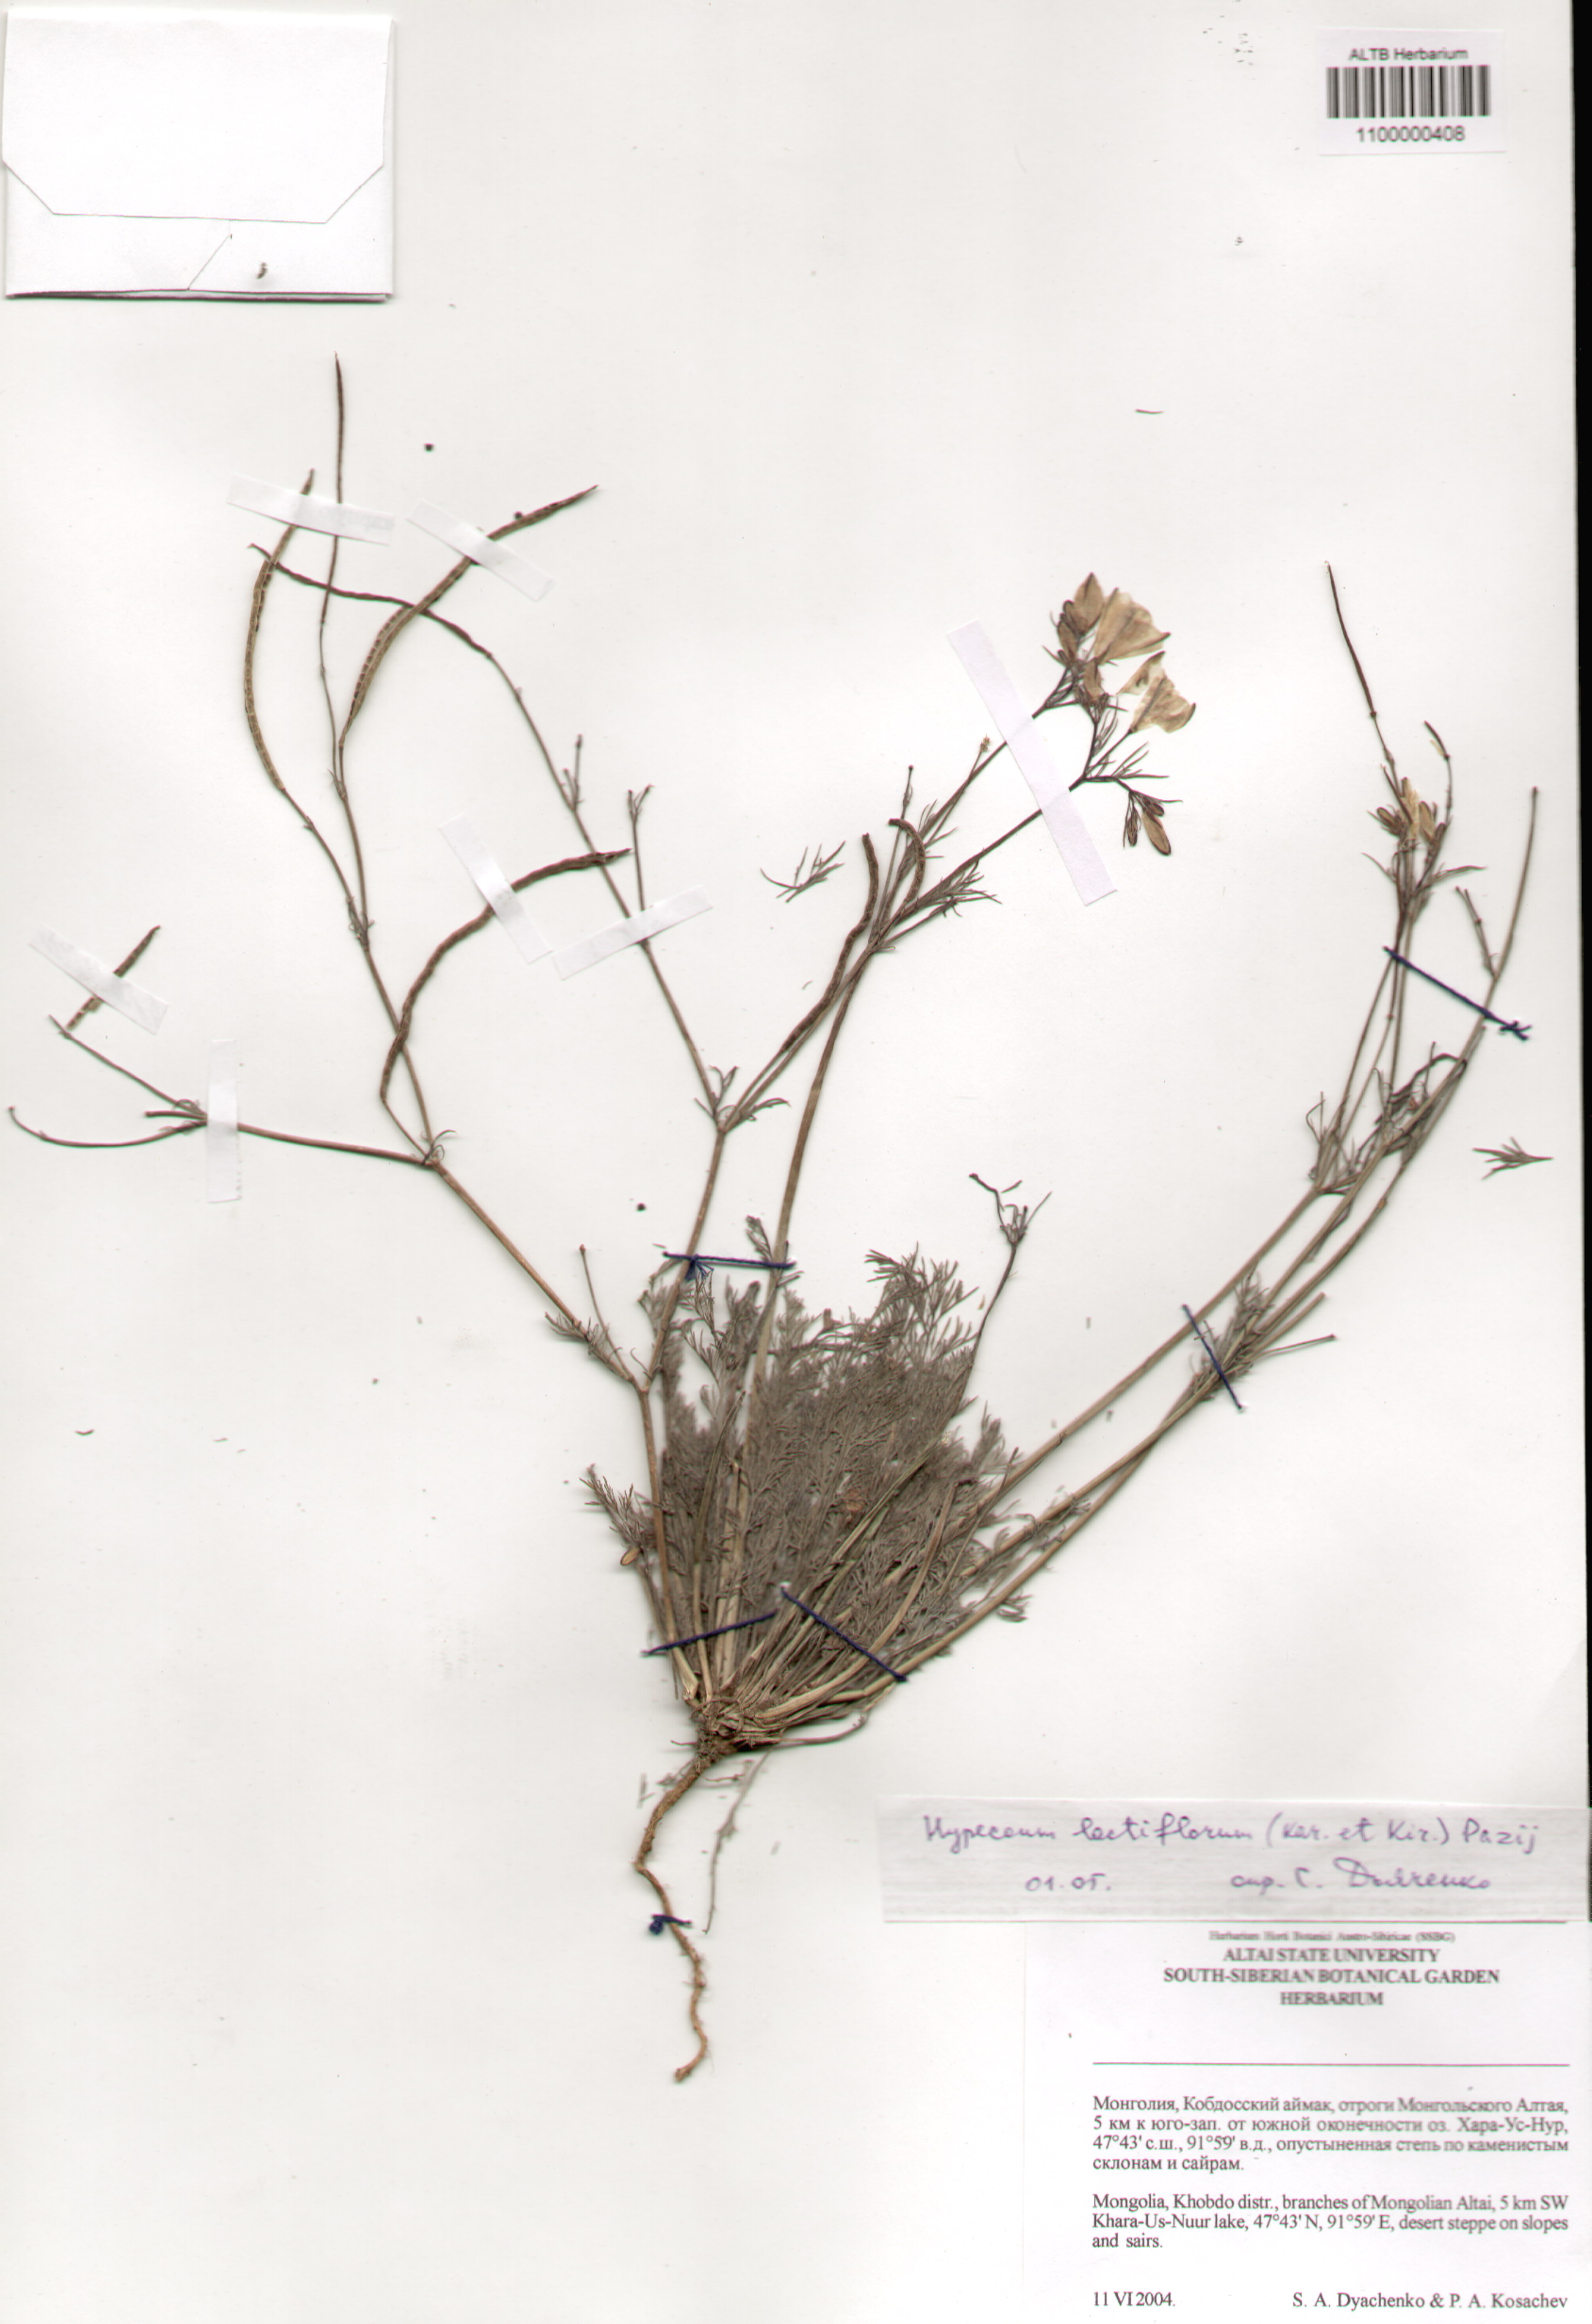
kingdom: Plantae
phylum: Tracheophyta
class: Magnoliopsida
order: Ranunculales
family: Papaveraceae
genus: Hypecoum
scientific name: Hypecoum lactiflorum
